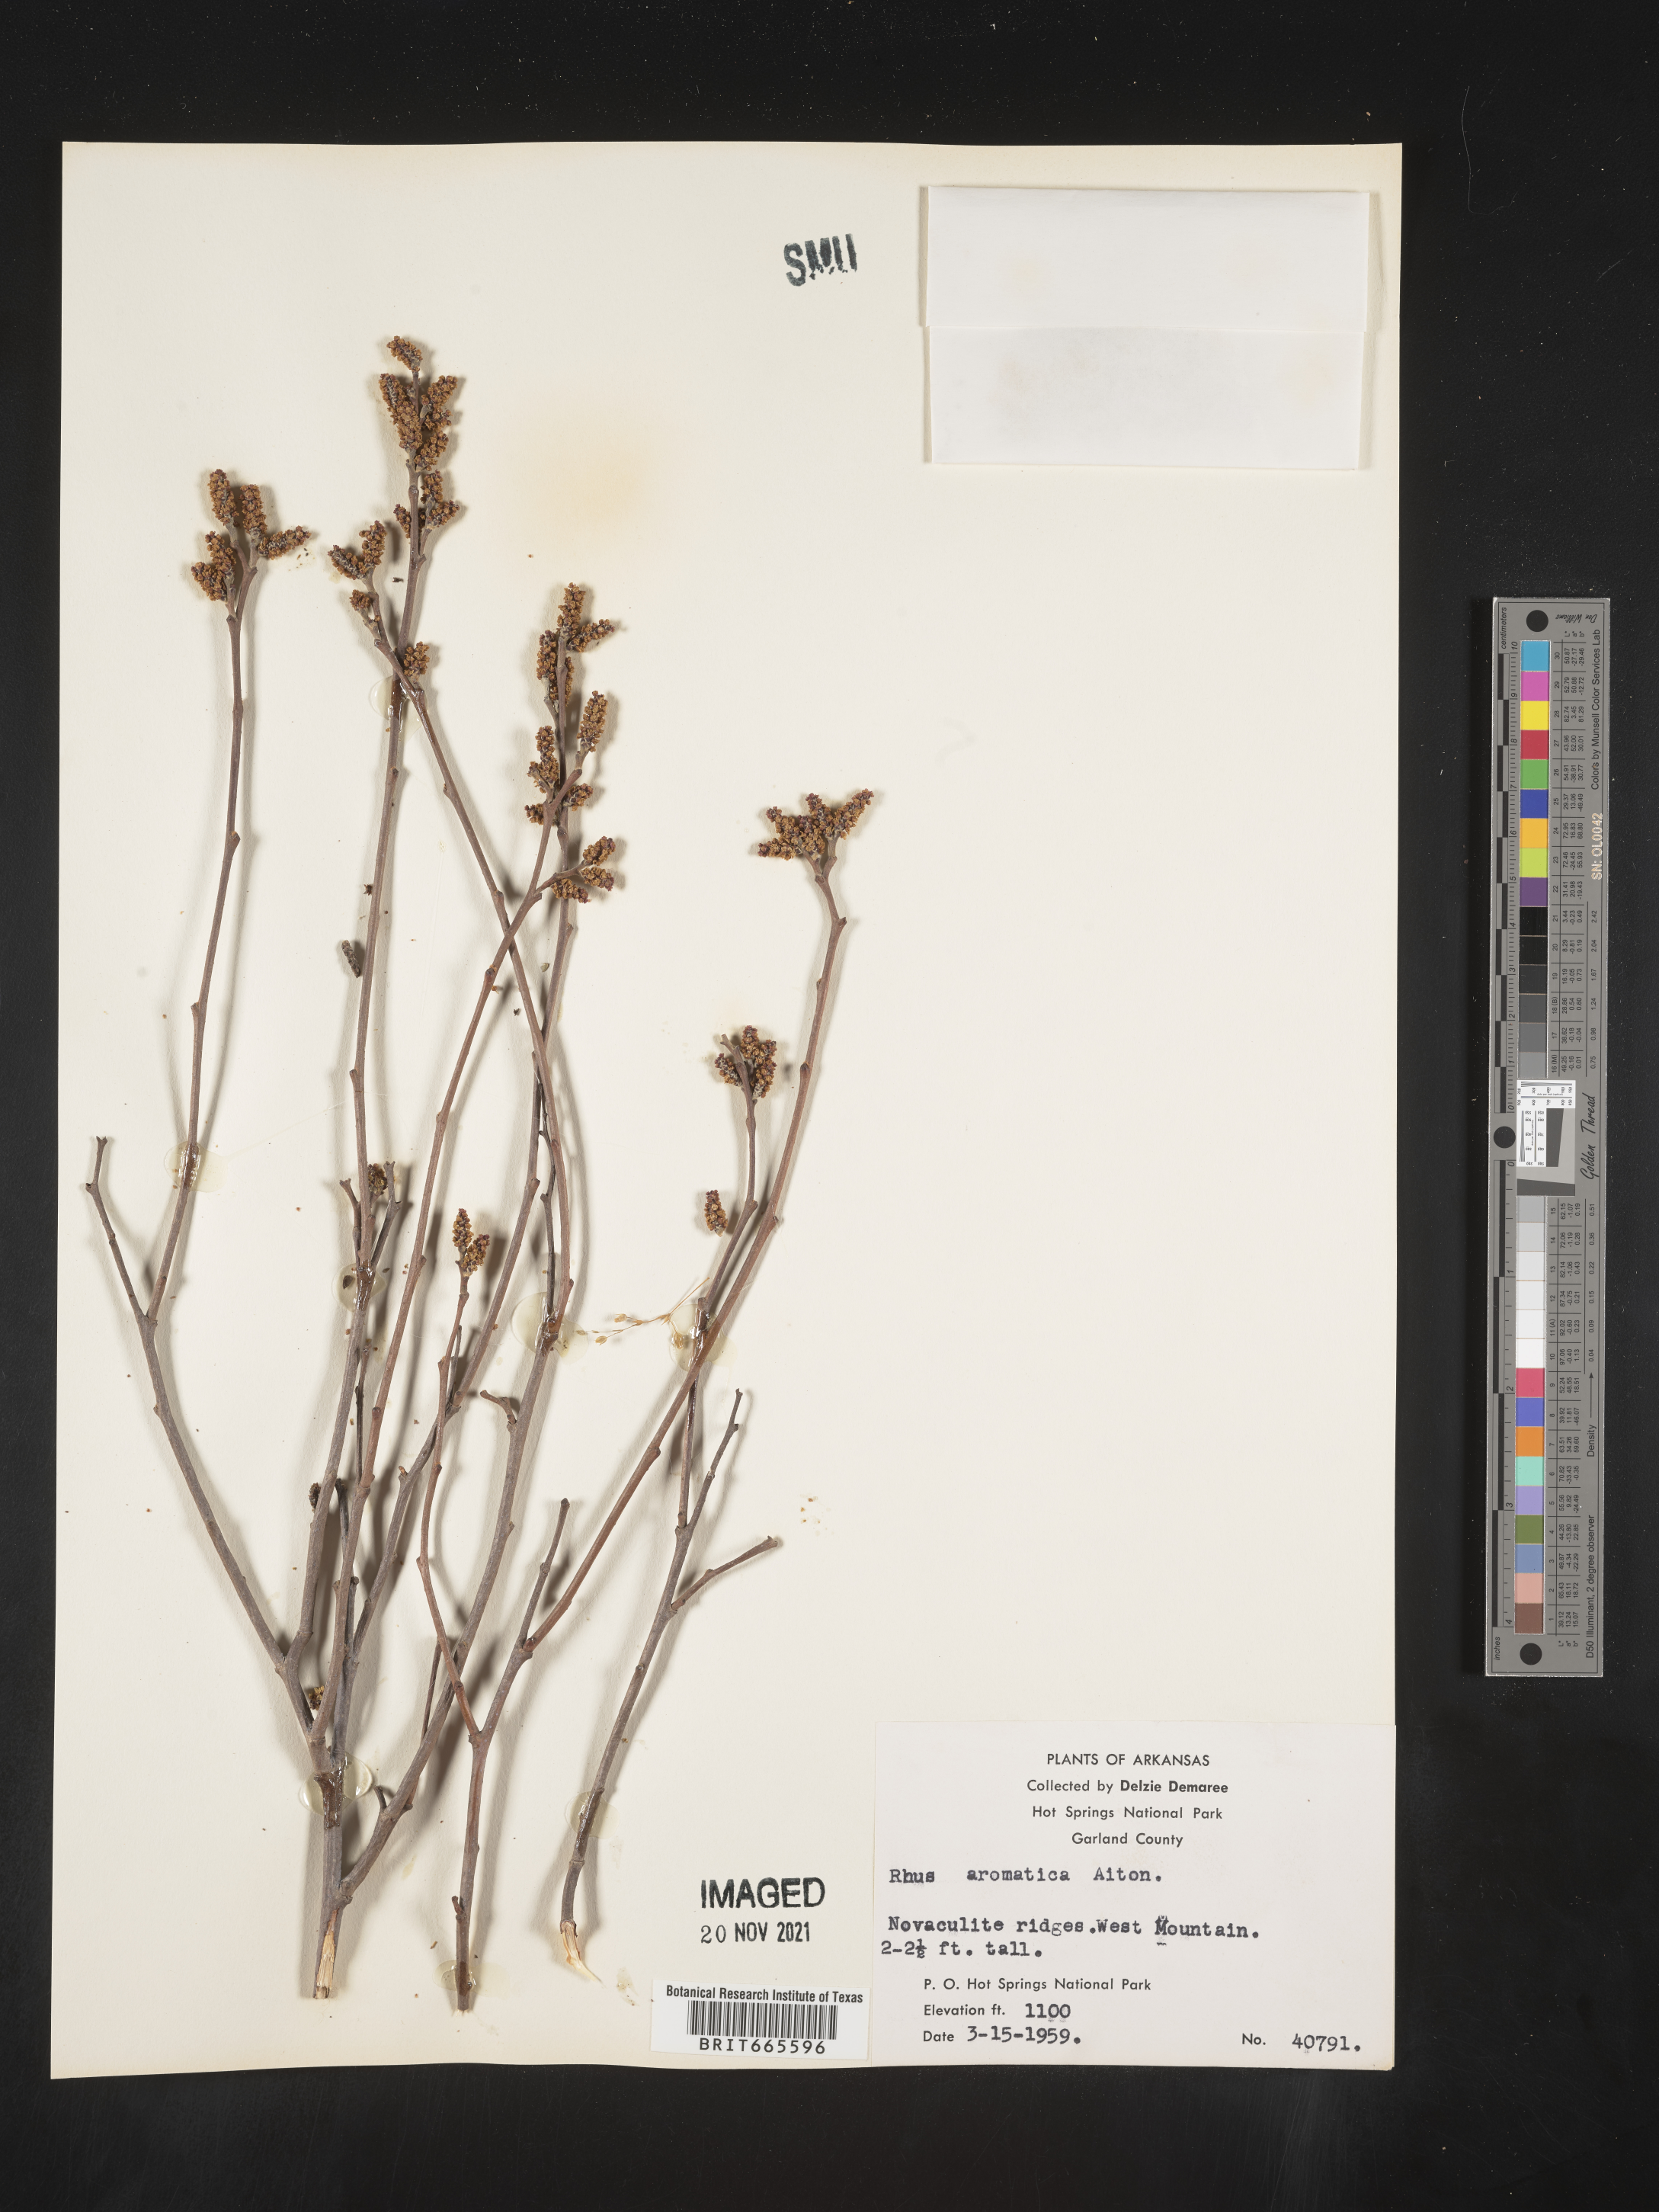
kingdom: Plantae
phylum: Tracheophyta
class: Magnoliopsida
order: Sapindales
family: Anacardiaceae
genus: Rhus
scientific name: Rhus aromatica
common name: Aromatic sumac
